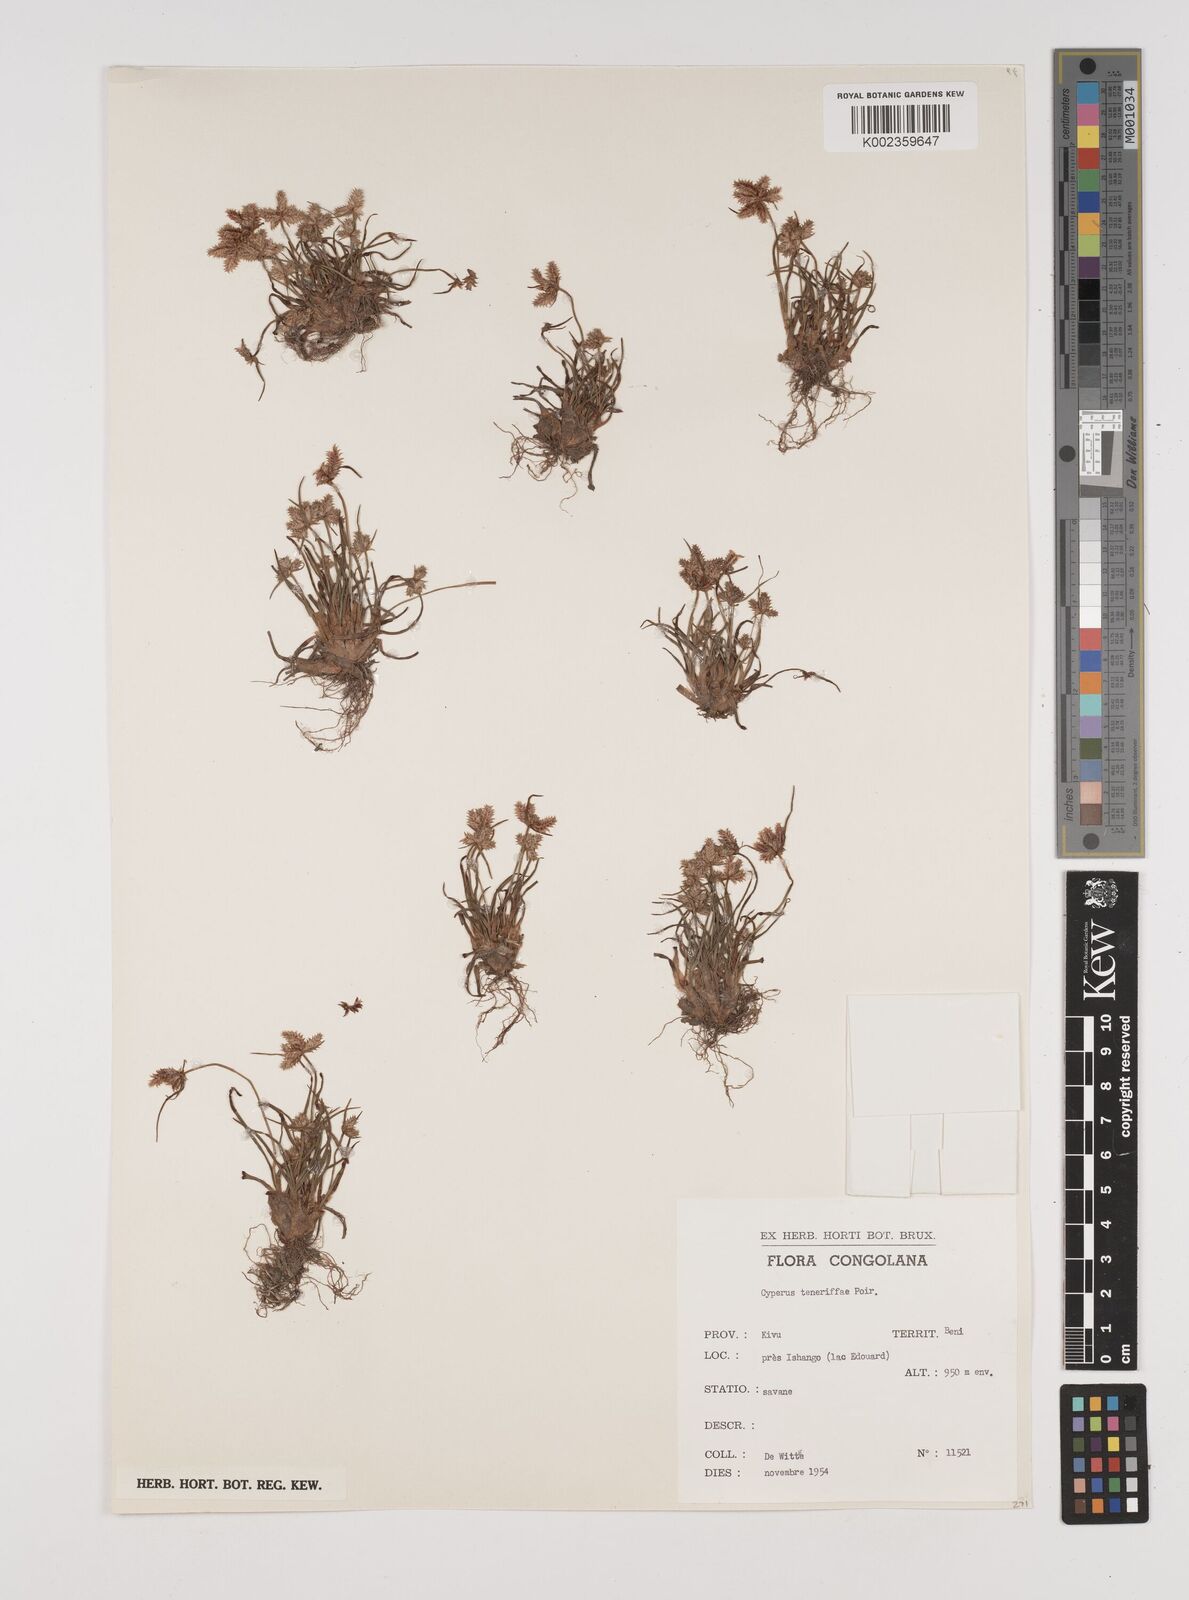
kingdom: Plantae
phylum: Tracheophyta
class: Liliopsida
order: Poales
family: Cyperaceae
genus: Cyperus
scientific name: Cyperus rubicundus
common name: Coco-grass
